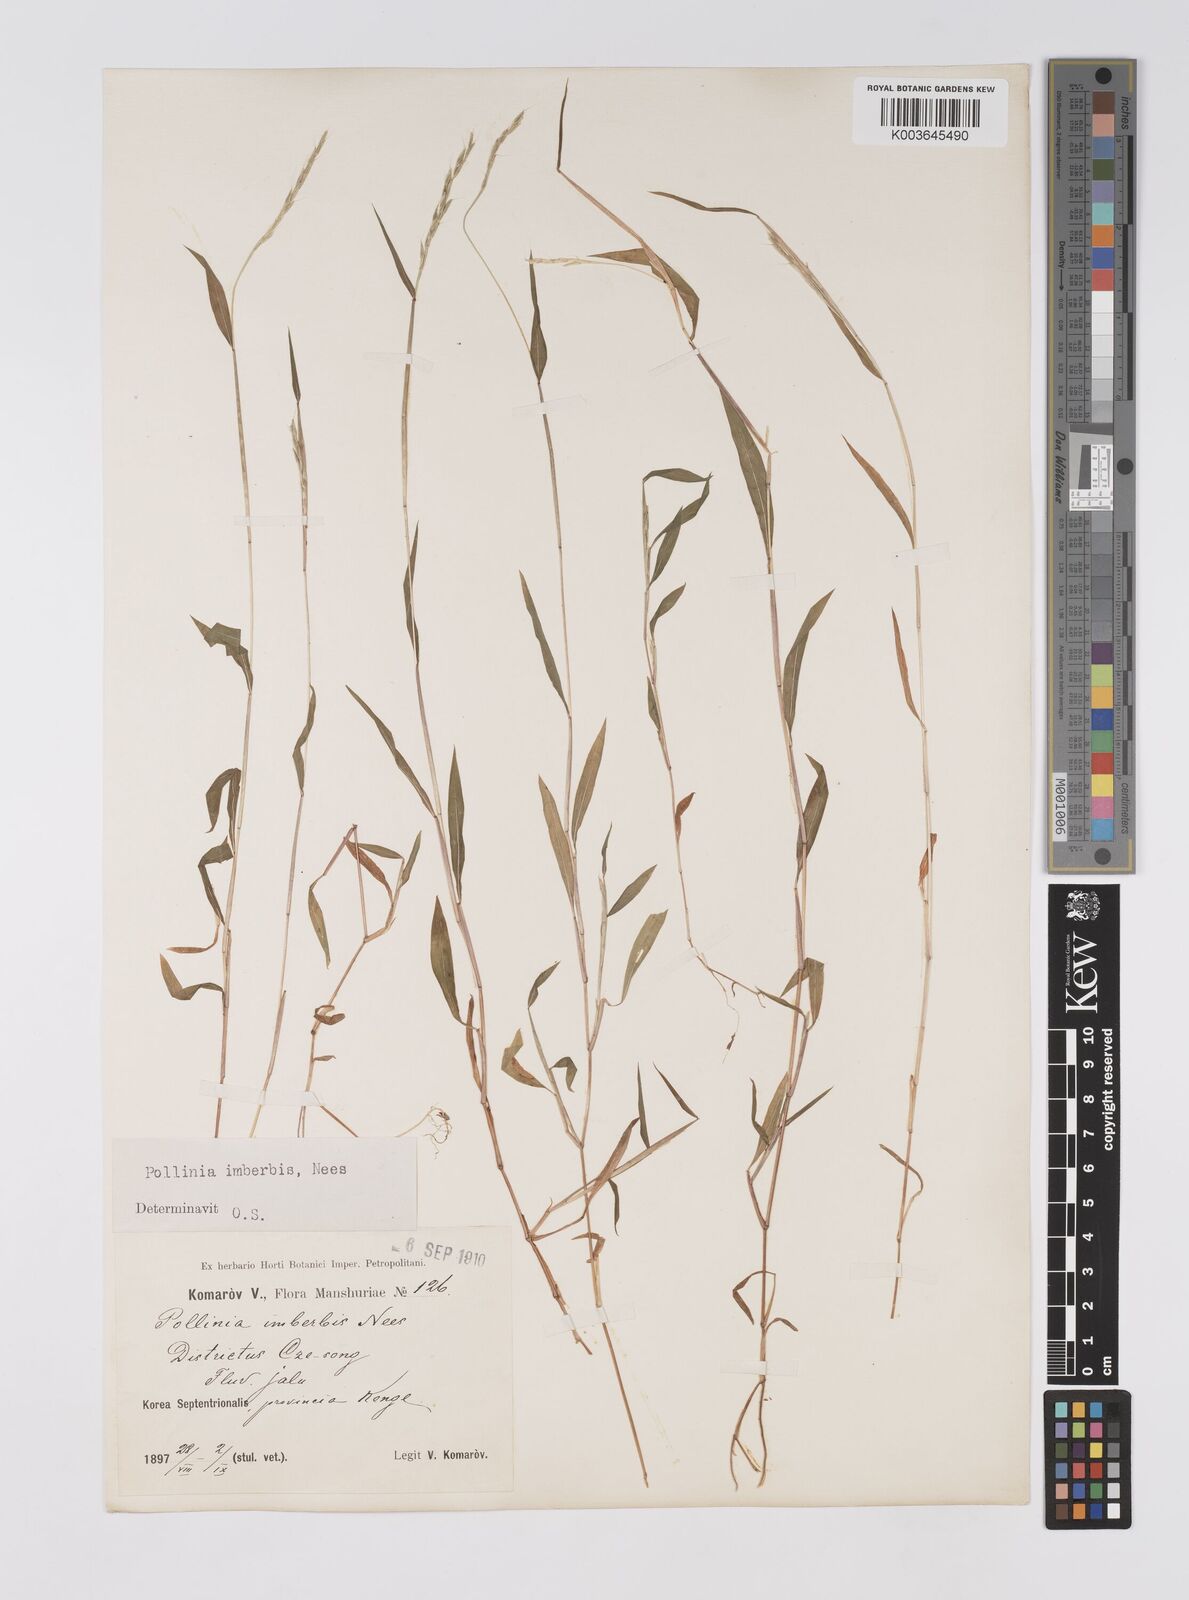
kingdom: Plantae
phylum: Tracheophyta
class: Liliopsida
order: Poales
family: Poaceae
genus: Microstegium
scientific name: Microstegium vimineum
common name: Japanese stiltgrass
